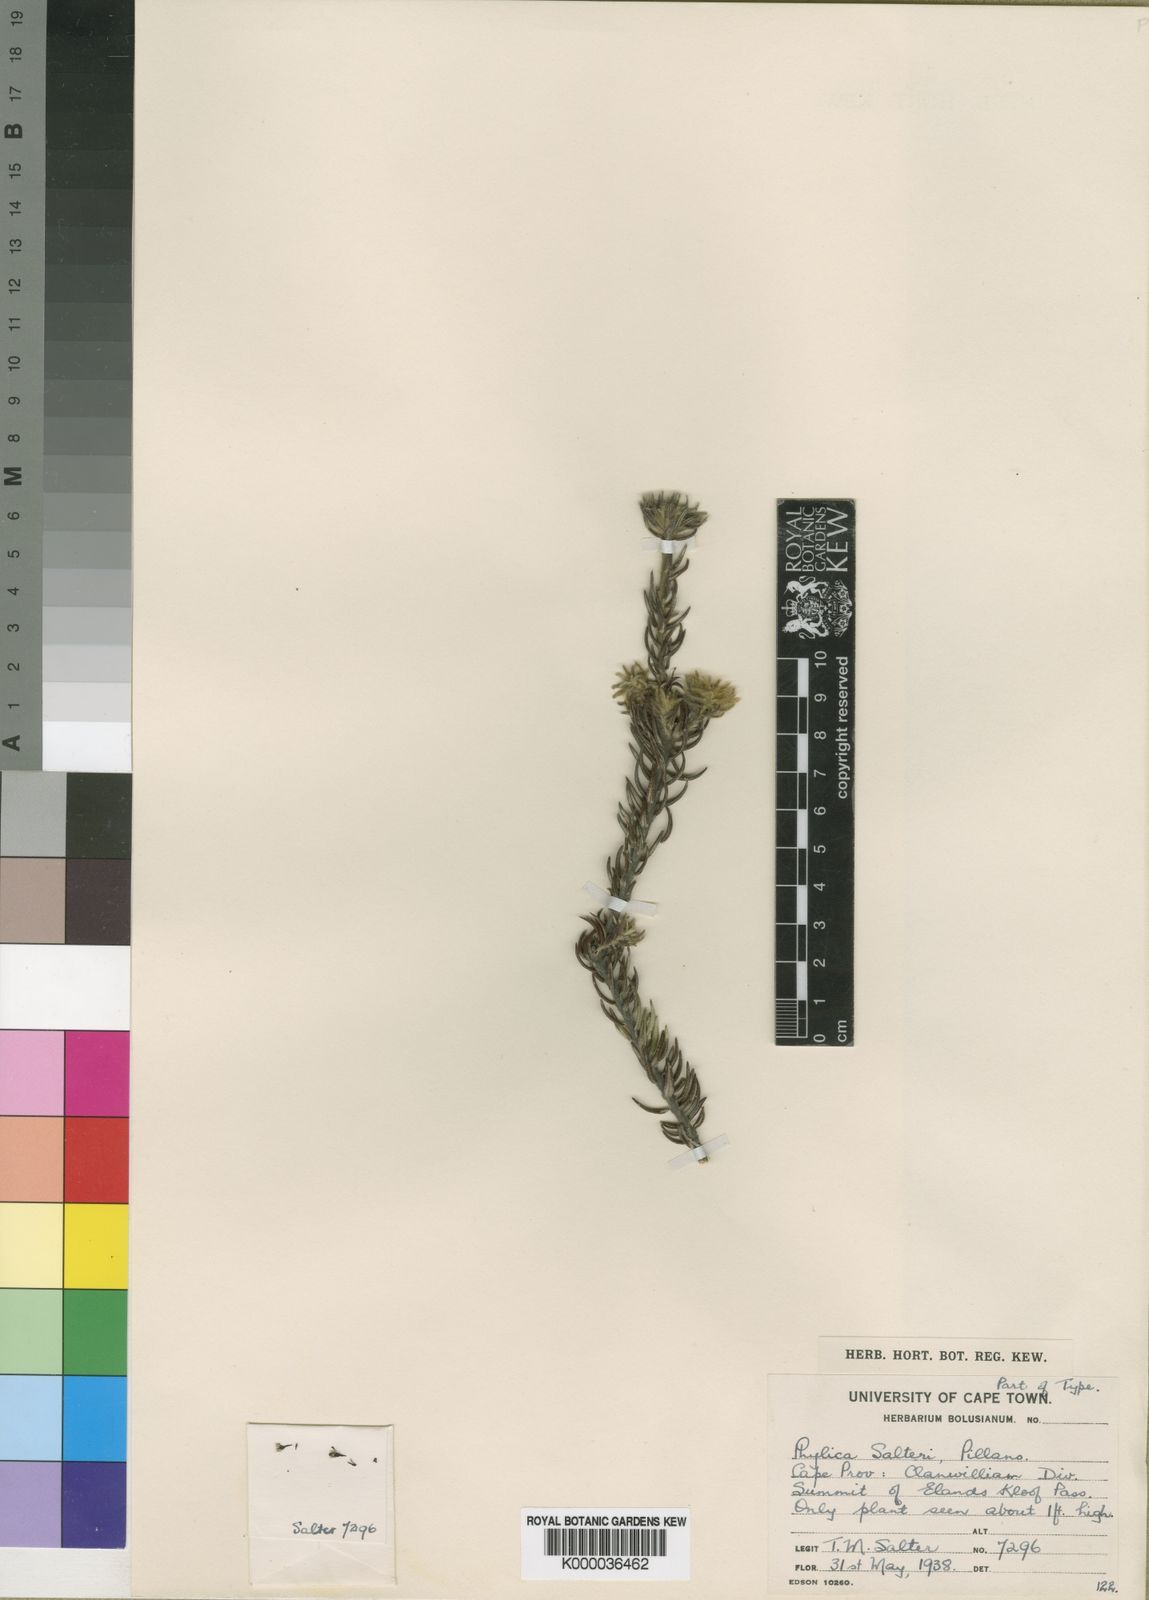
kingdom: Plantae
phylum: Tracheophyta
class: Magnoliopsida
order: Rosales
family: Rhamnaceae
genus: Phylica
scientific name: Phylica salteri
